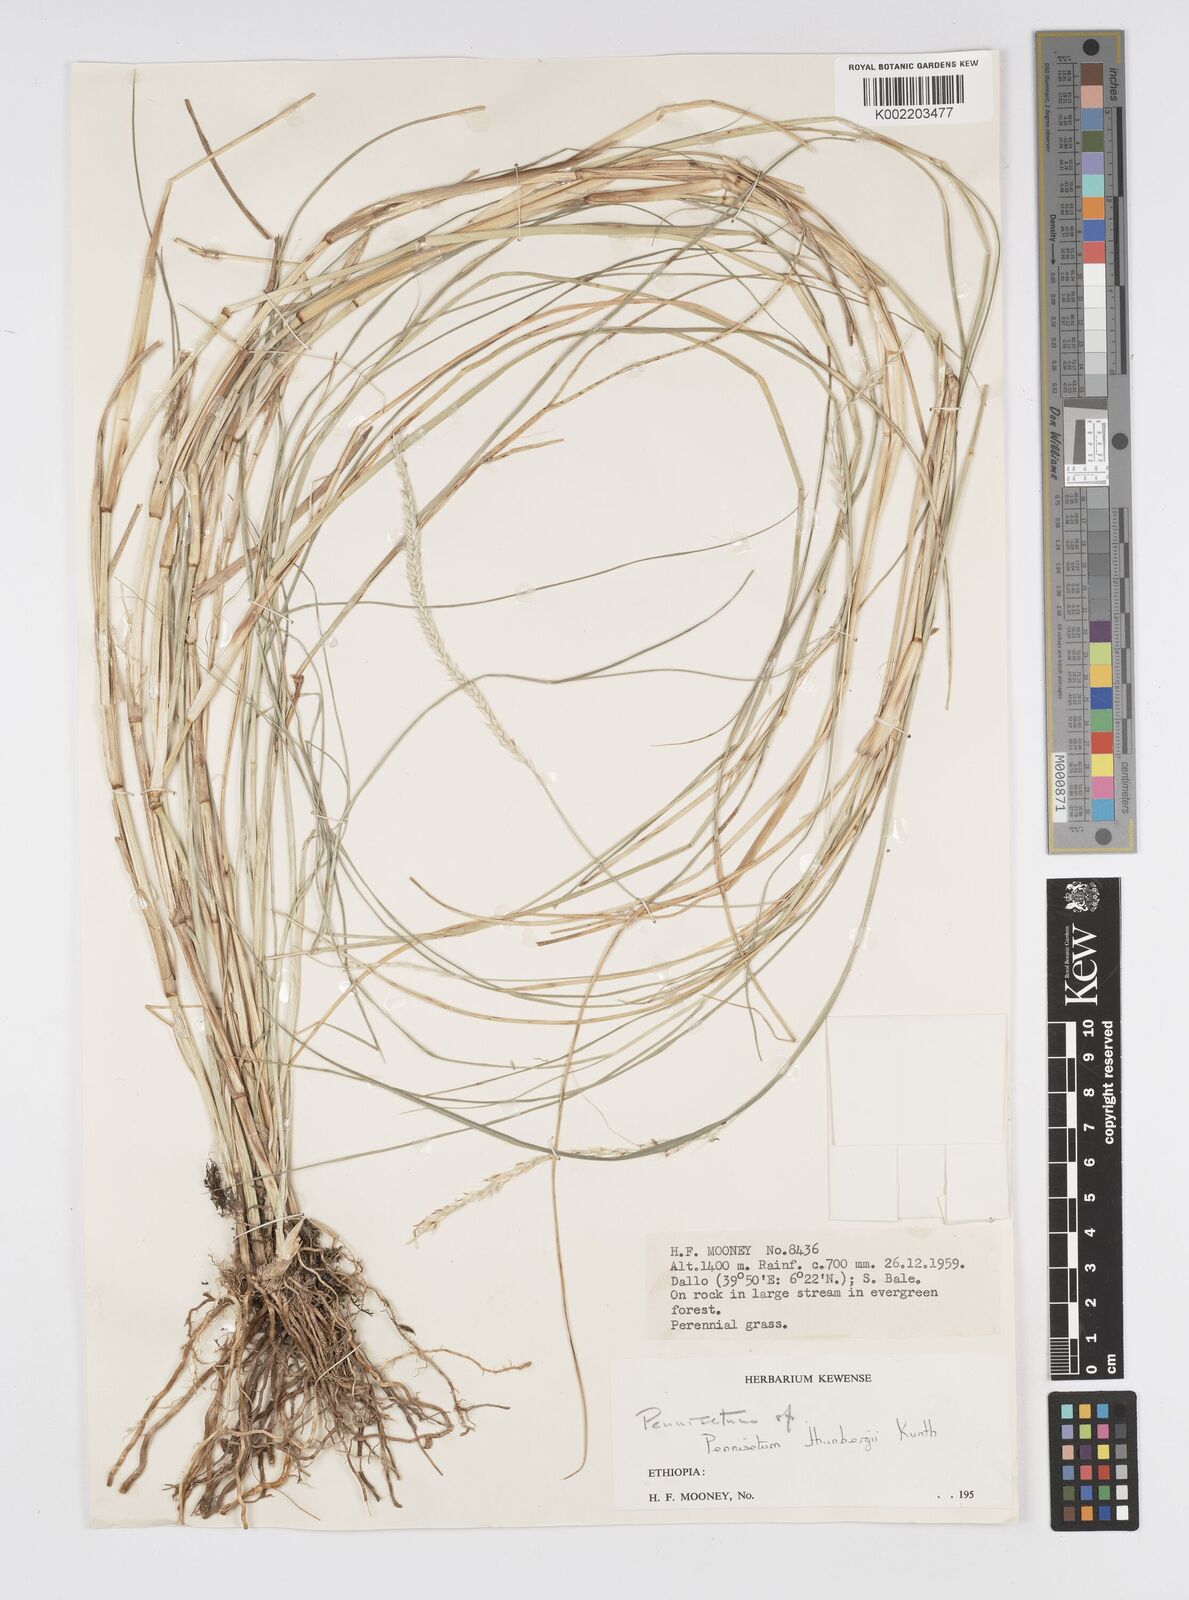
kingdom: Plantae
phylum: Tracheophyta
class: Liliopsida
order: Poales
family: Poaceae
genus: Cenchrus
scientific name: Cenchrus geniculatus
